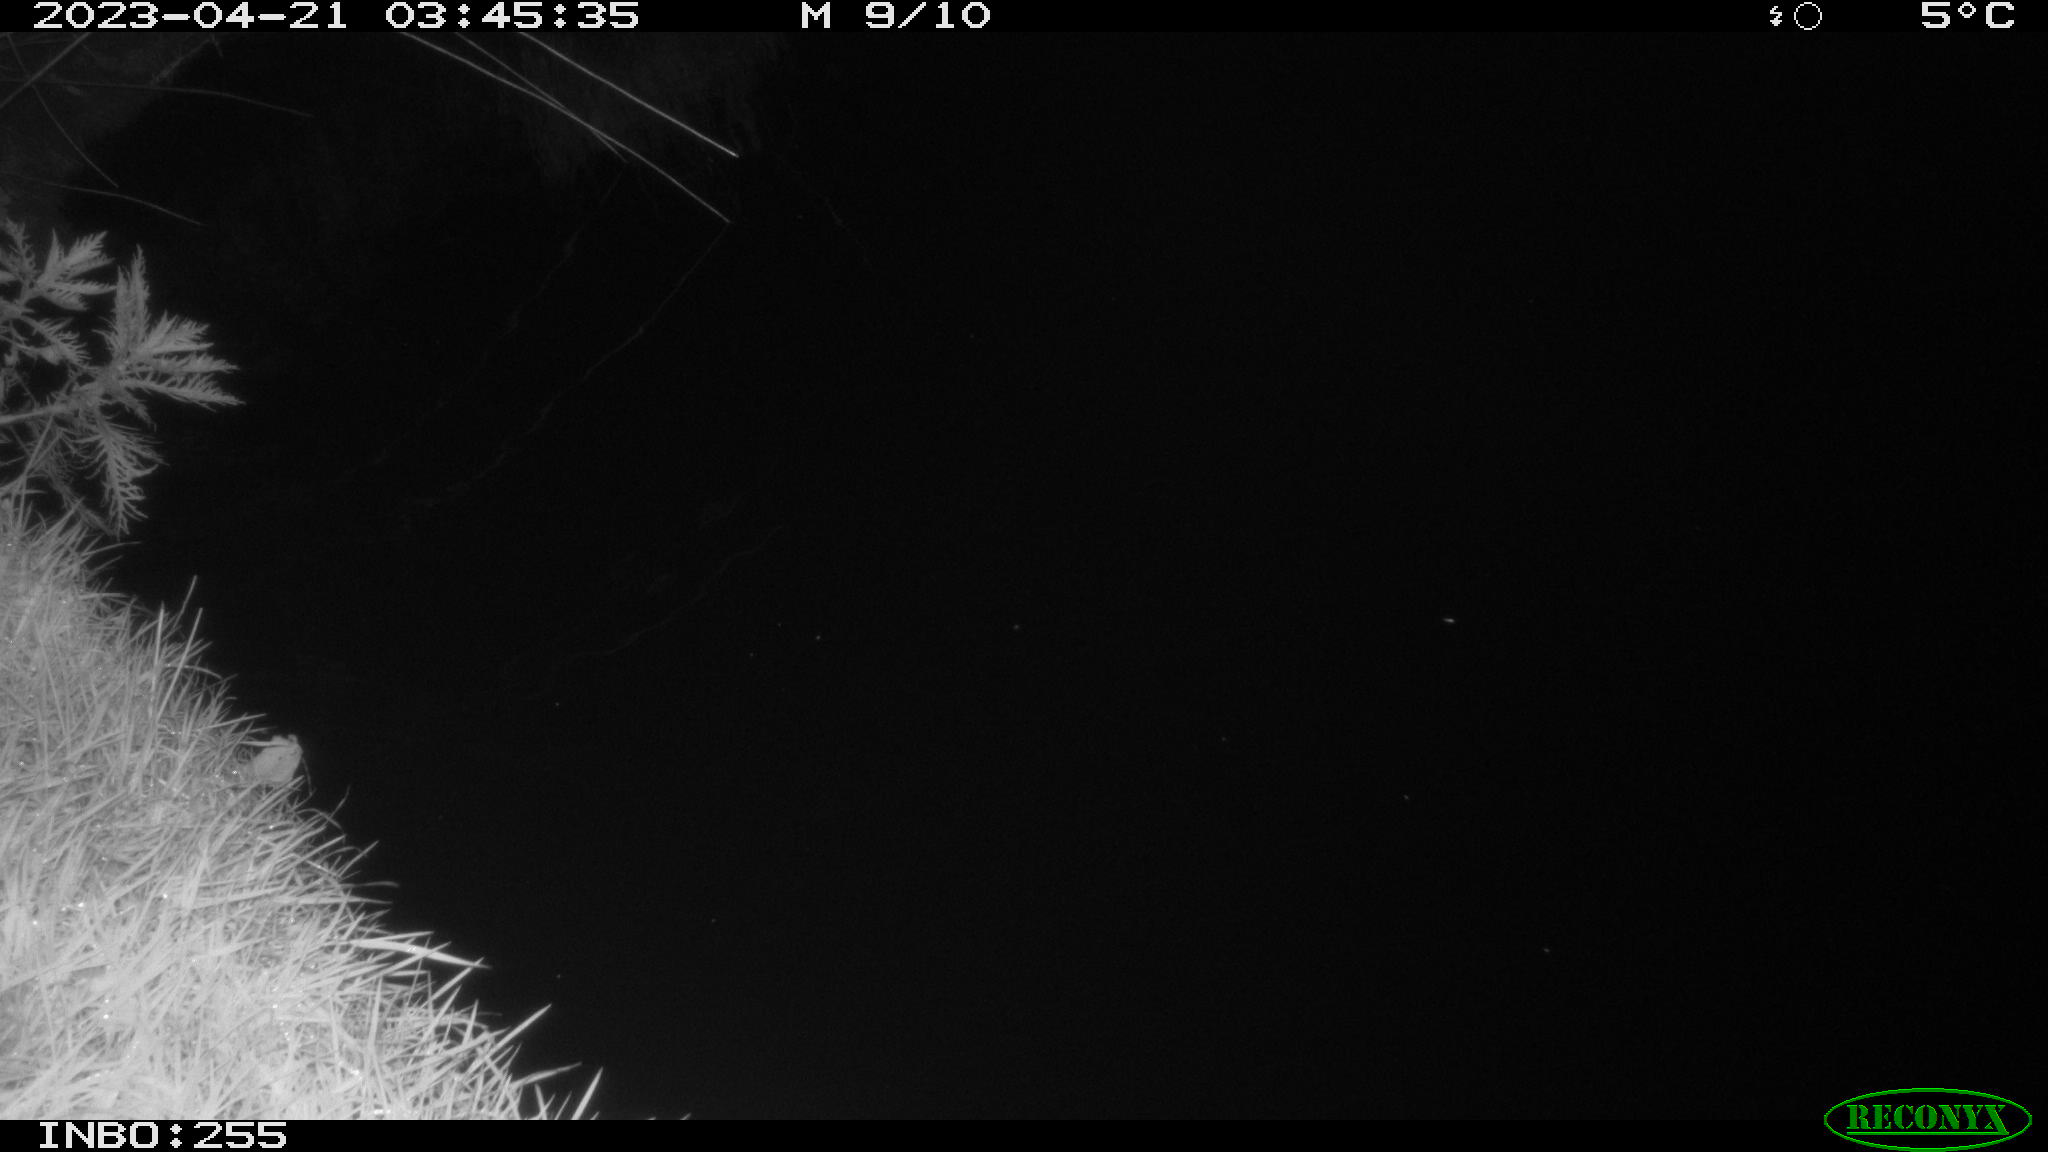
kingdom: Animalia
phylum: Chordata
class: Aves
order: Anseriformes
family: Anatidae
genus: Anas
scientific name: Anas
